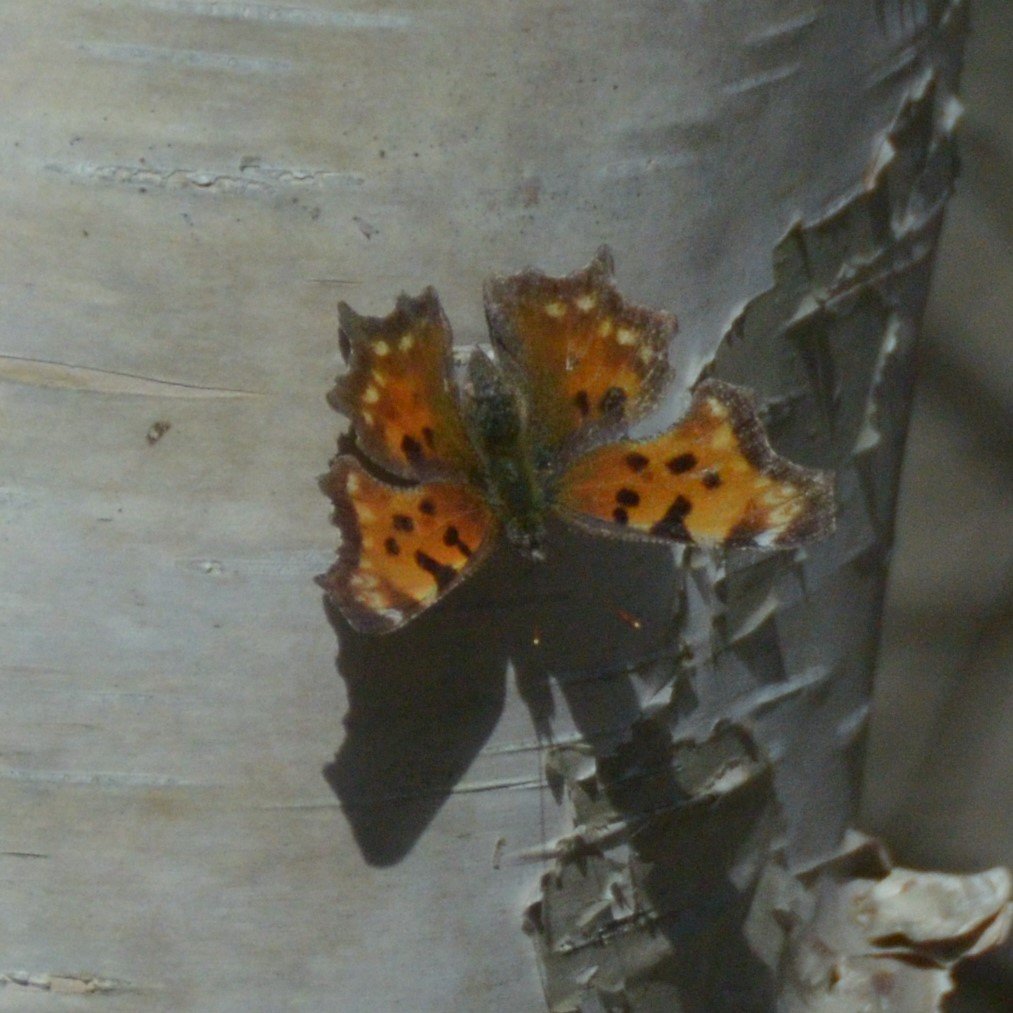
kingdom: Animalia
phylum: Arthropoda
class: Insecta
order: Lepidoptera
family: Nymphalidae
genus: Polygonia
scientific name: Polygonia faunus
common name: Green Comma
